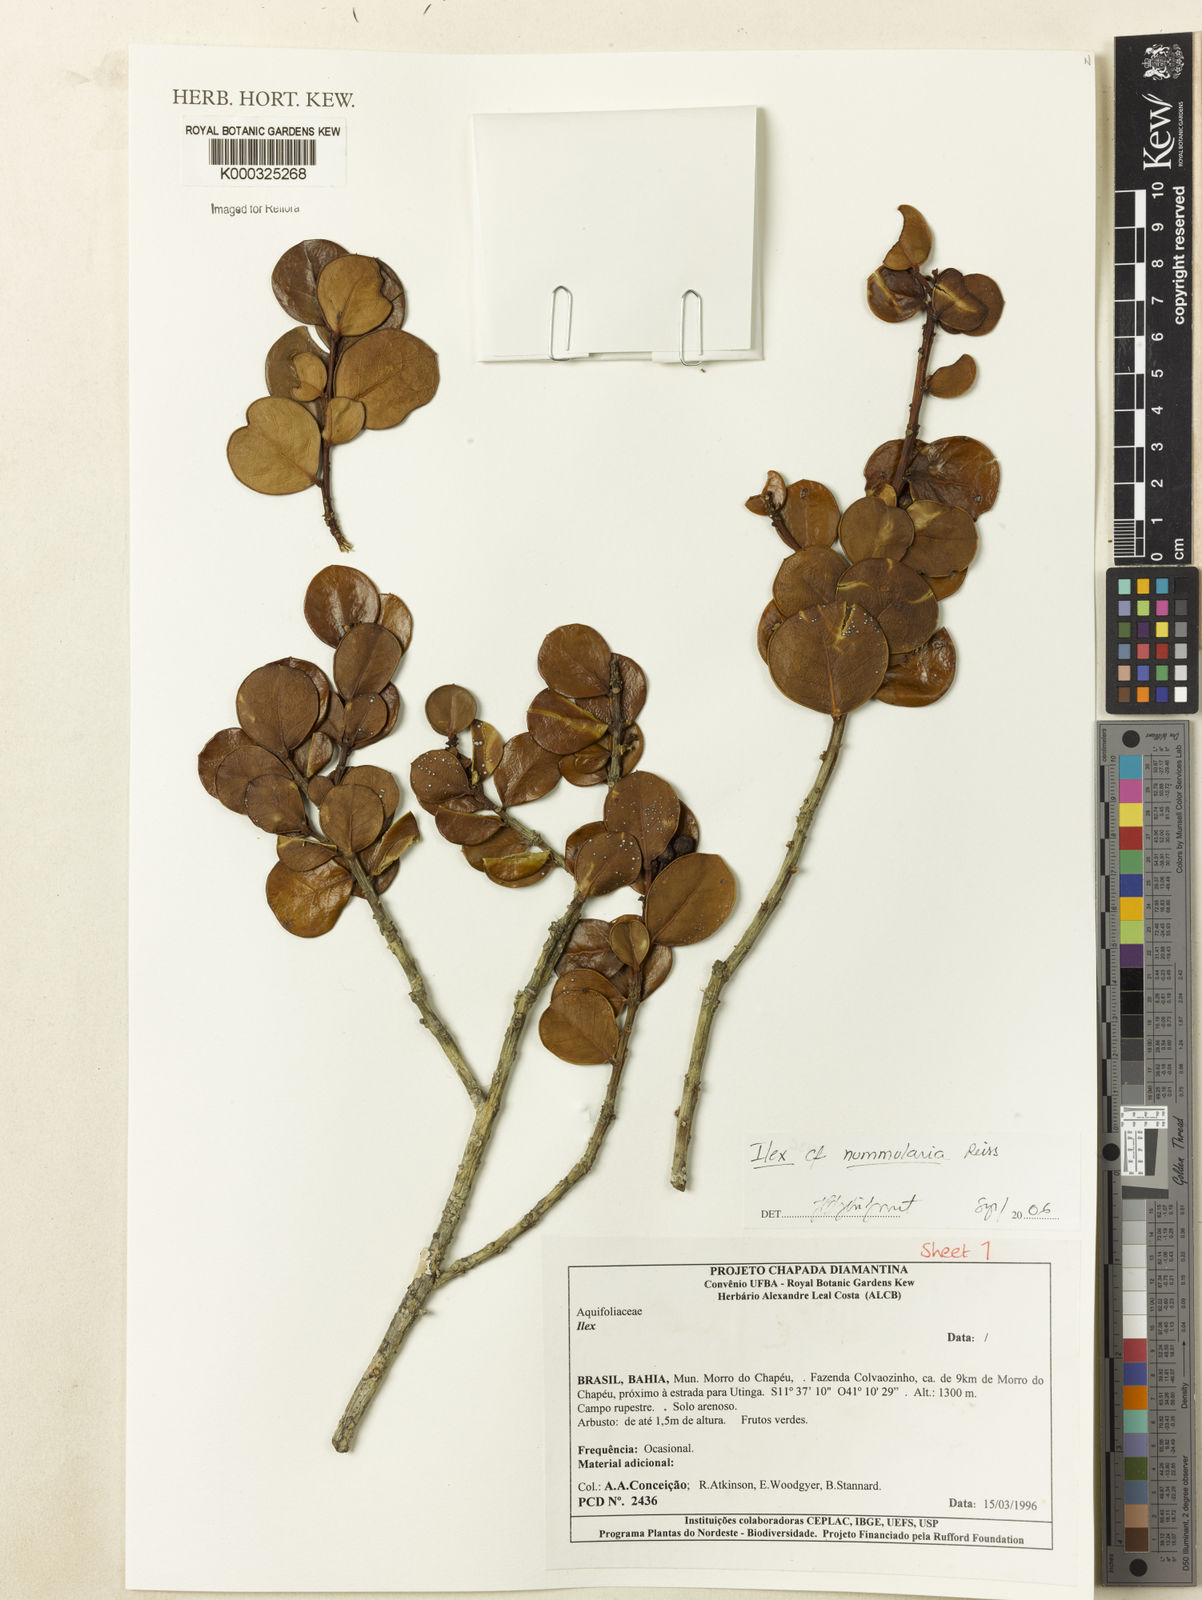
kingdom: Plantae
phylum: Tracheophyta
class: Magnoliopsida
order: Aquifoliales
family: Aquifoliaceae
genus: Ilex
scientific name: Ilex nummularia
